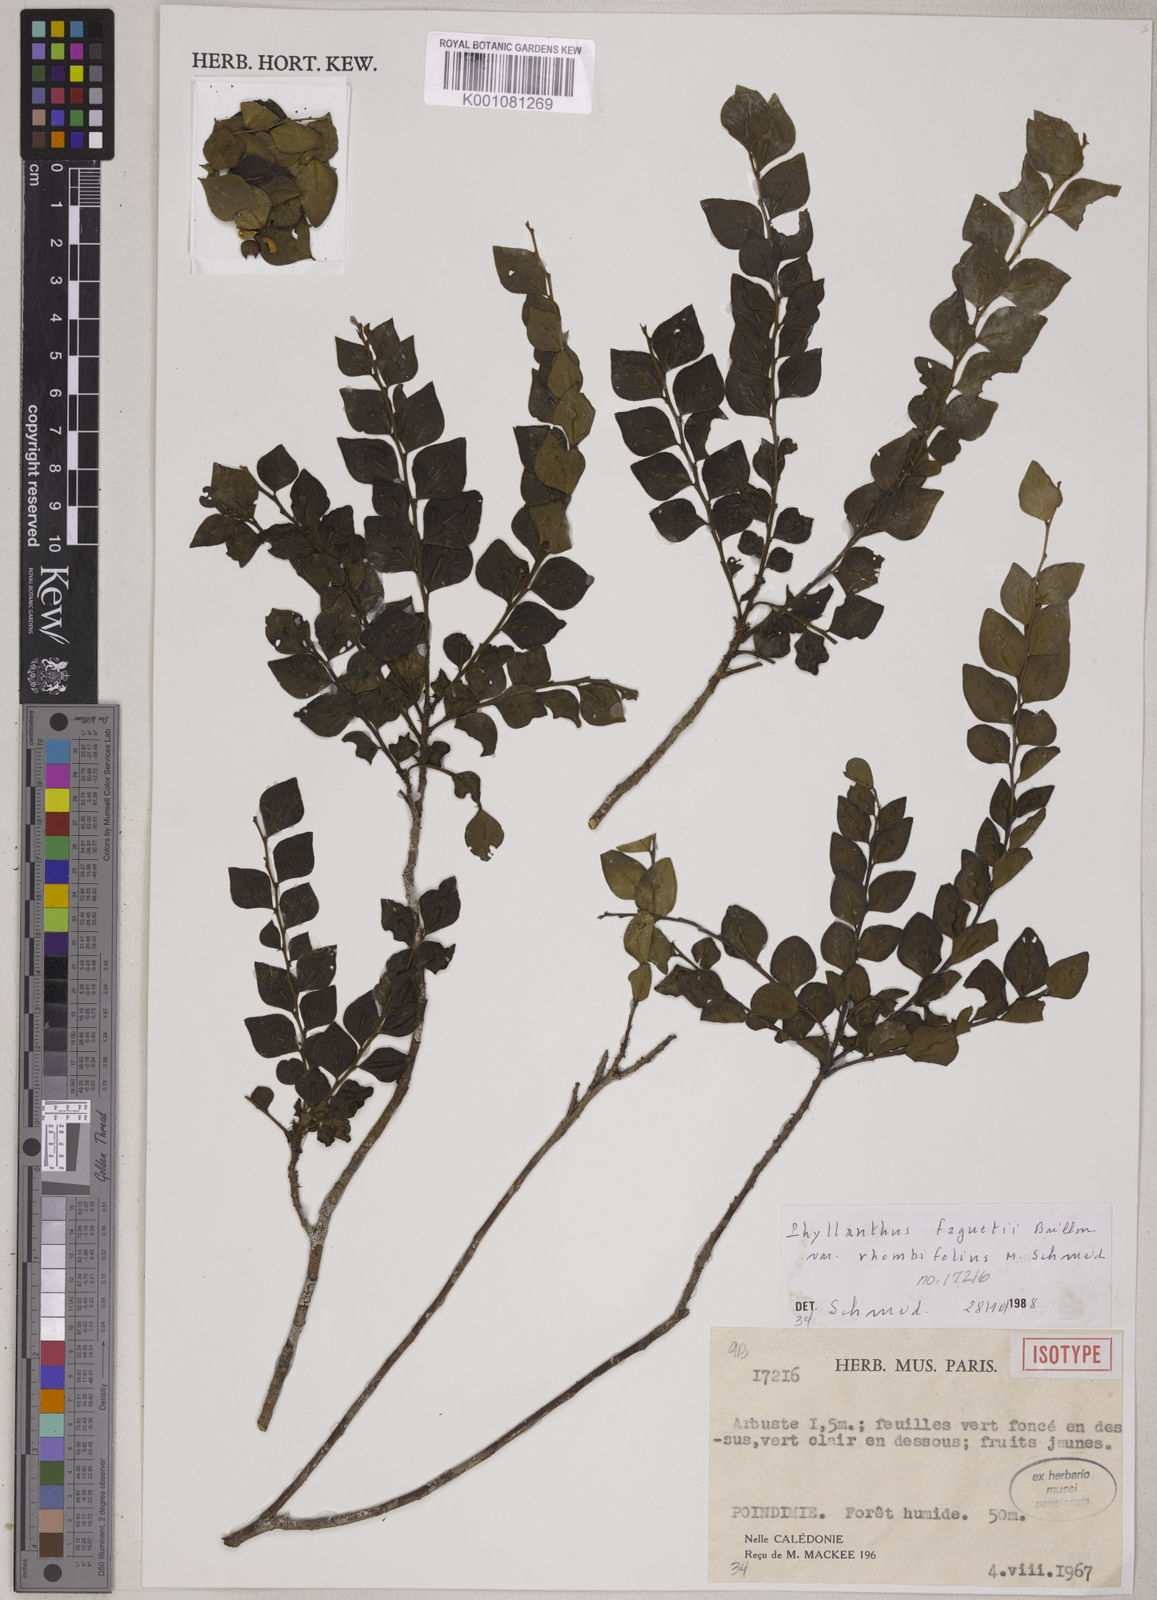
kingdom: Plantae
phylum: Tracheophyta
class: Magnoliopsida
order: Malpighiales
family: Phyllanthaceae
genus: Phyllanthus
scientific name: Phyllanthus faguetii
